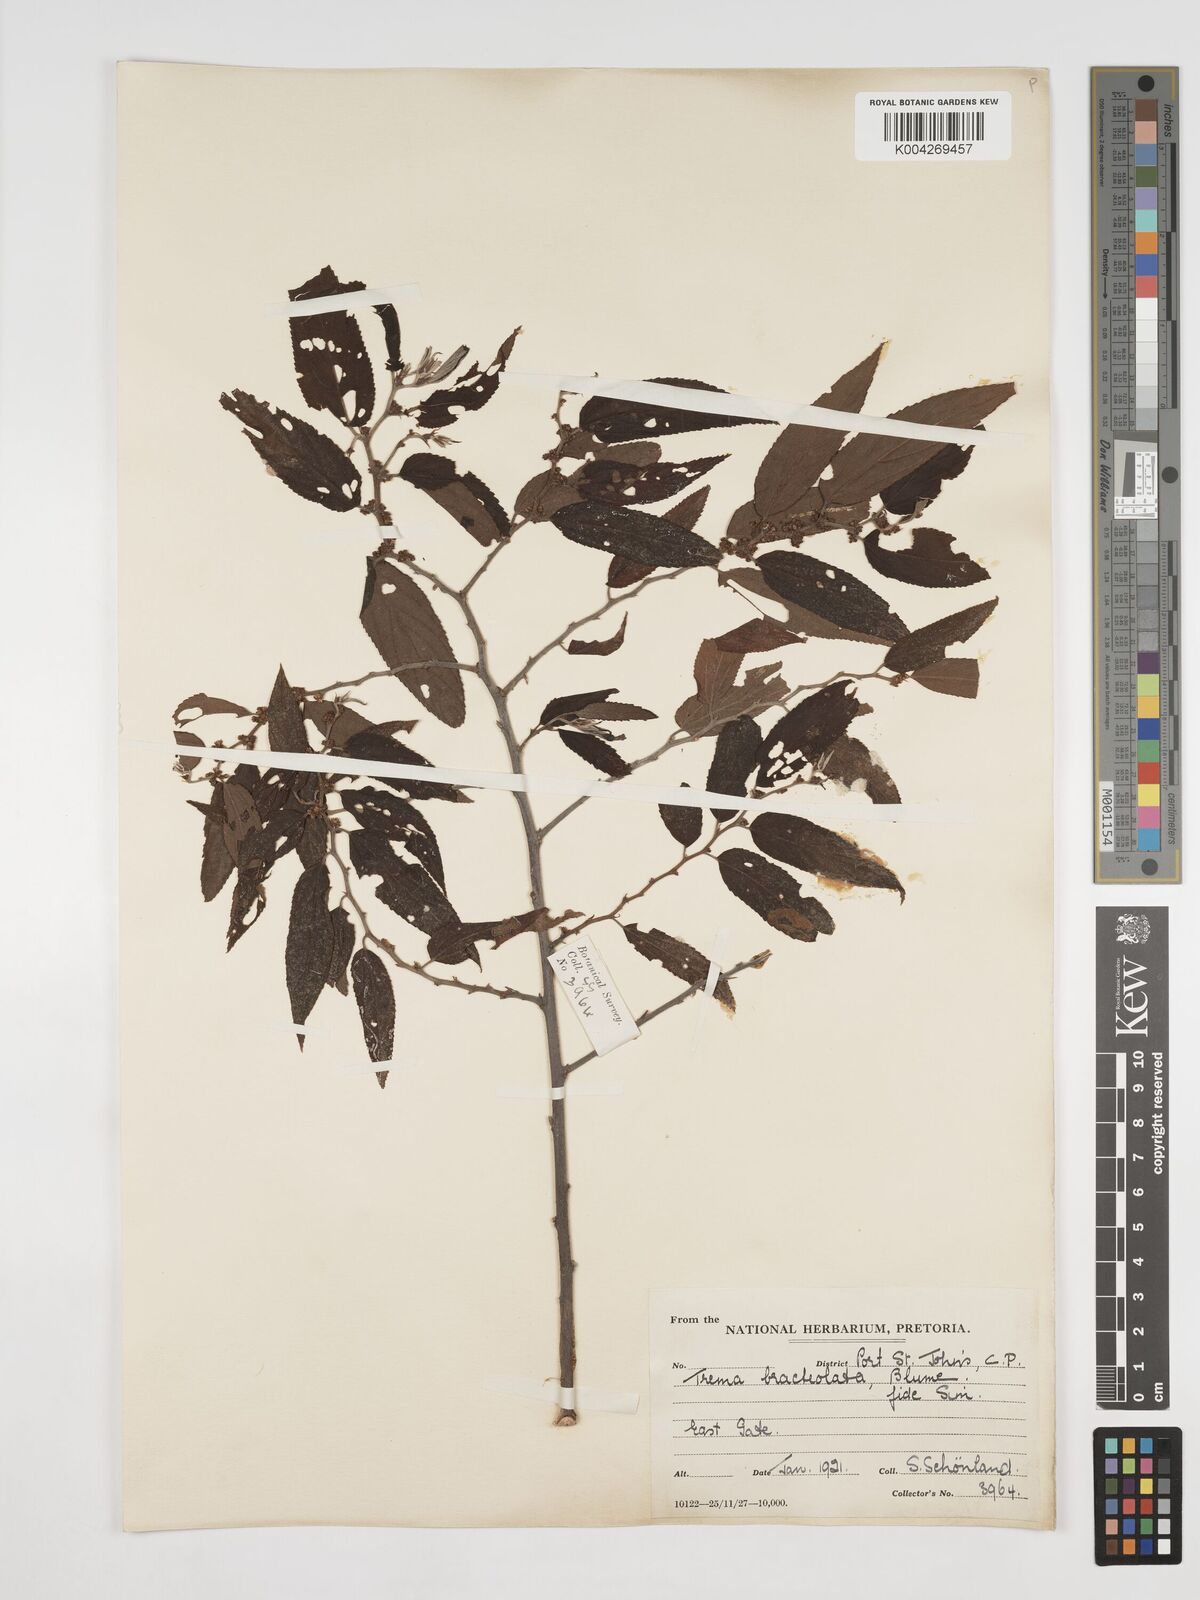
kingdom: Plantae
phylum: Tracheophyta
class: Magnoliopsida
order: Rosales
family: Cannabaceae
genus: Trema
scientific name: Trema orientale
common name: Indian charcoal tree
